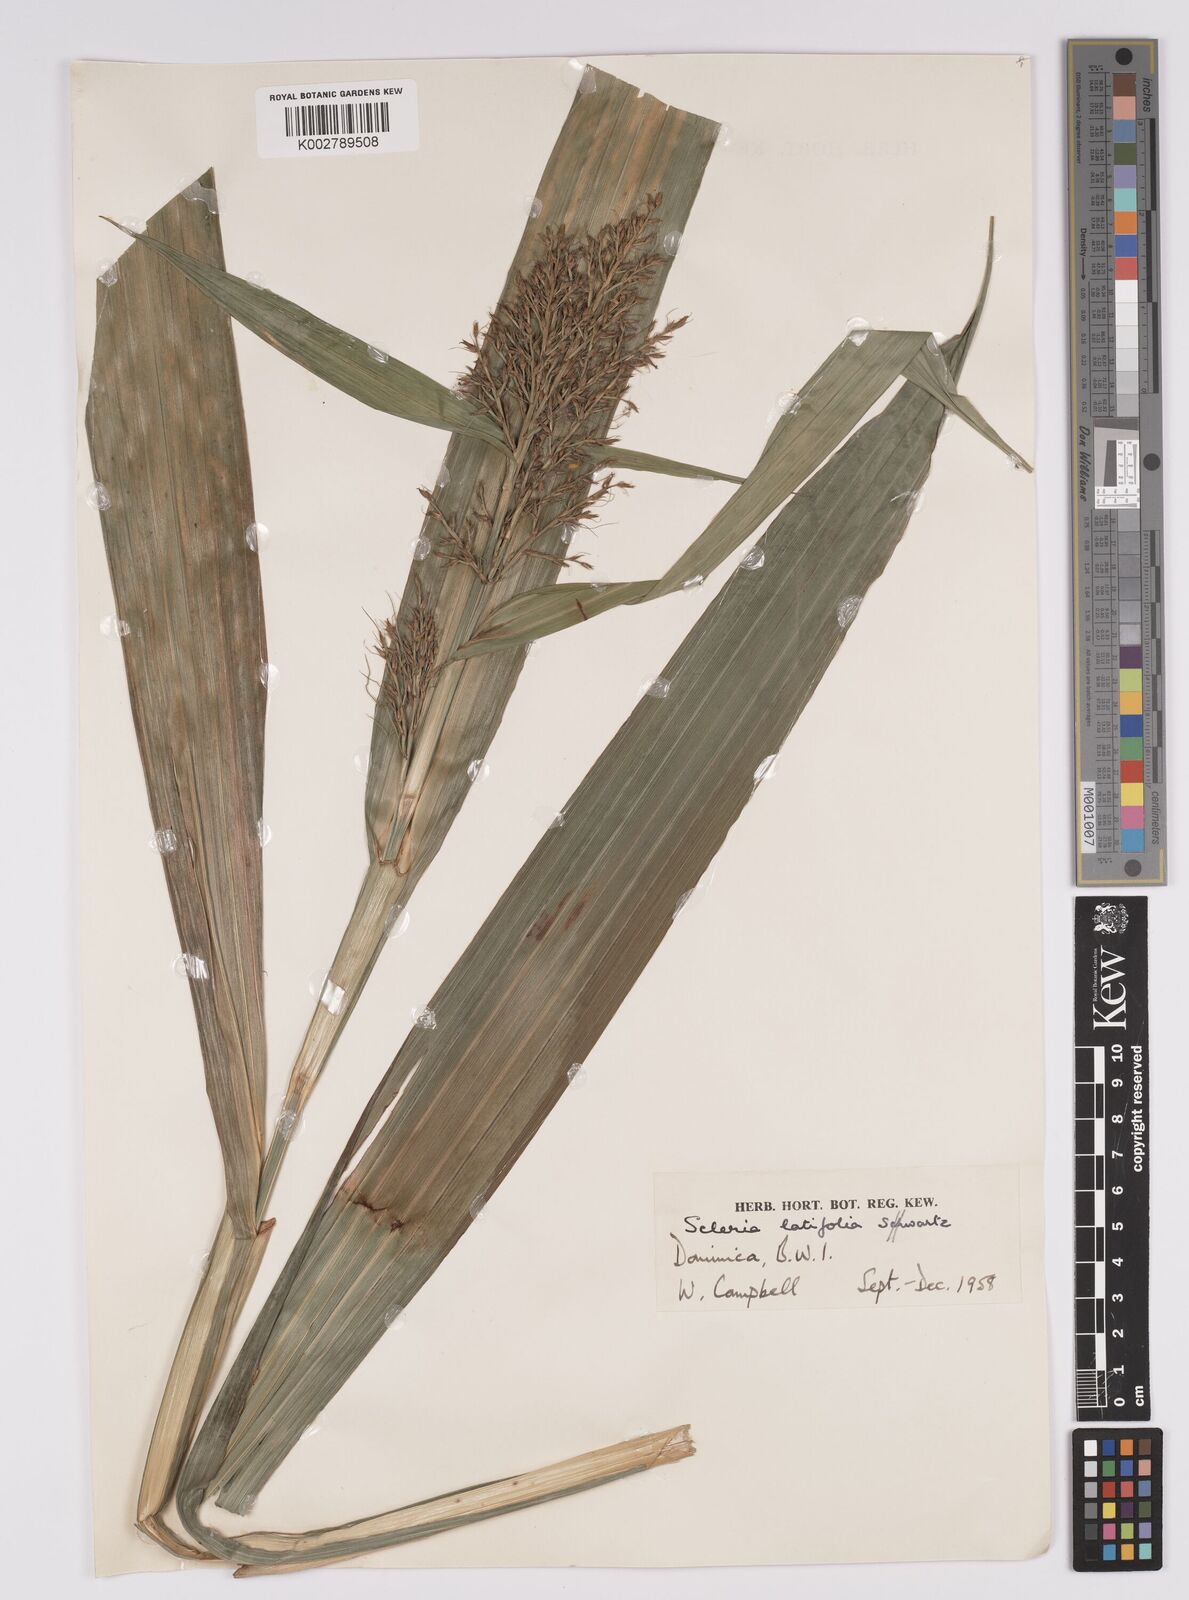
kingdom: Plantae
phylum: Tracheophyta
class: Liliopsida
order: Poales
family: Cyperaceae
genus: Scleria
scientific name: Scleria latifolia
